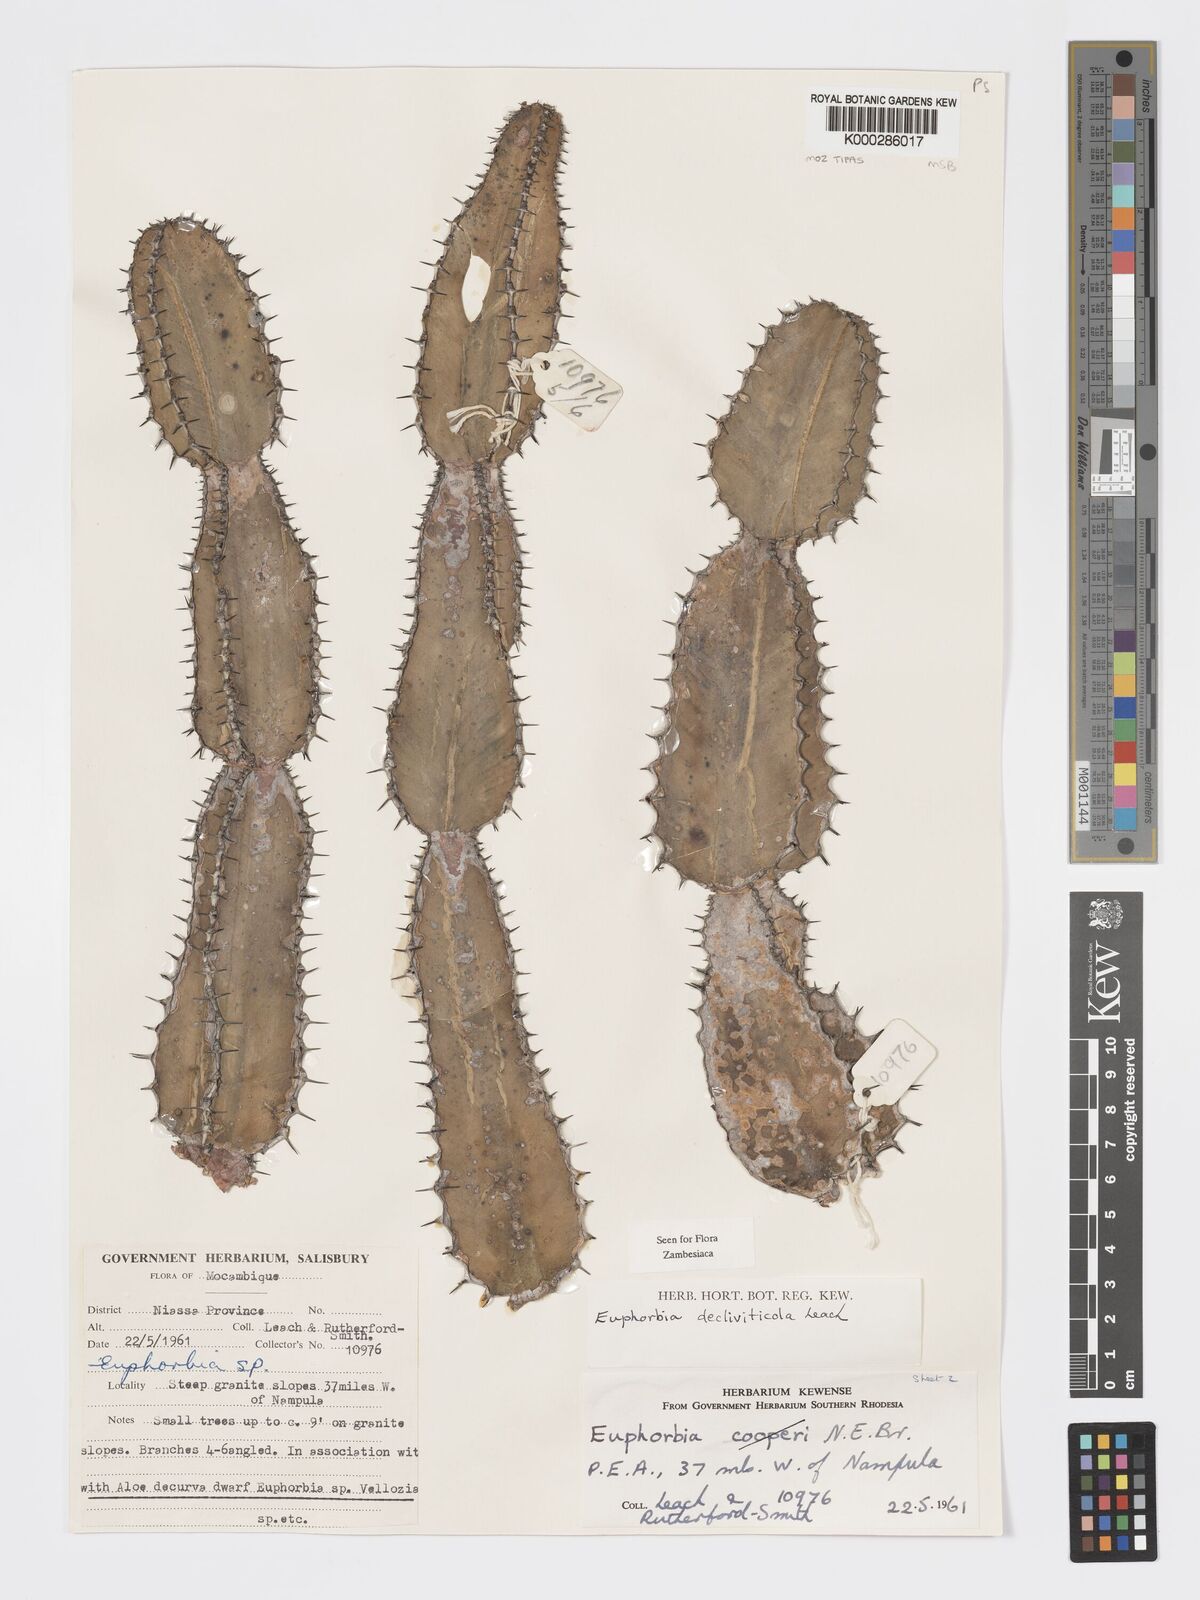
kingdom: Plantae
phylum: Tracheophyta
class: Magnoliopsida
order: Malpighiales
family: Euphorbiaceae
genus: Euphorbia
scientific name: Euphorbia decliviticola
